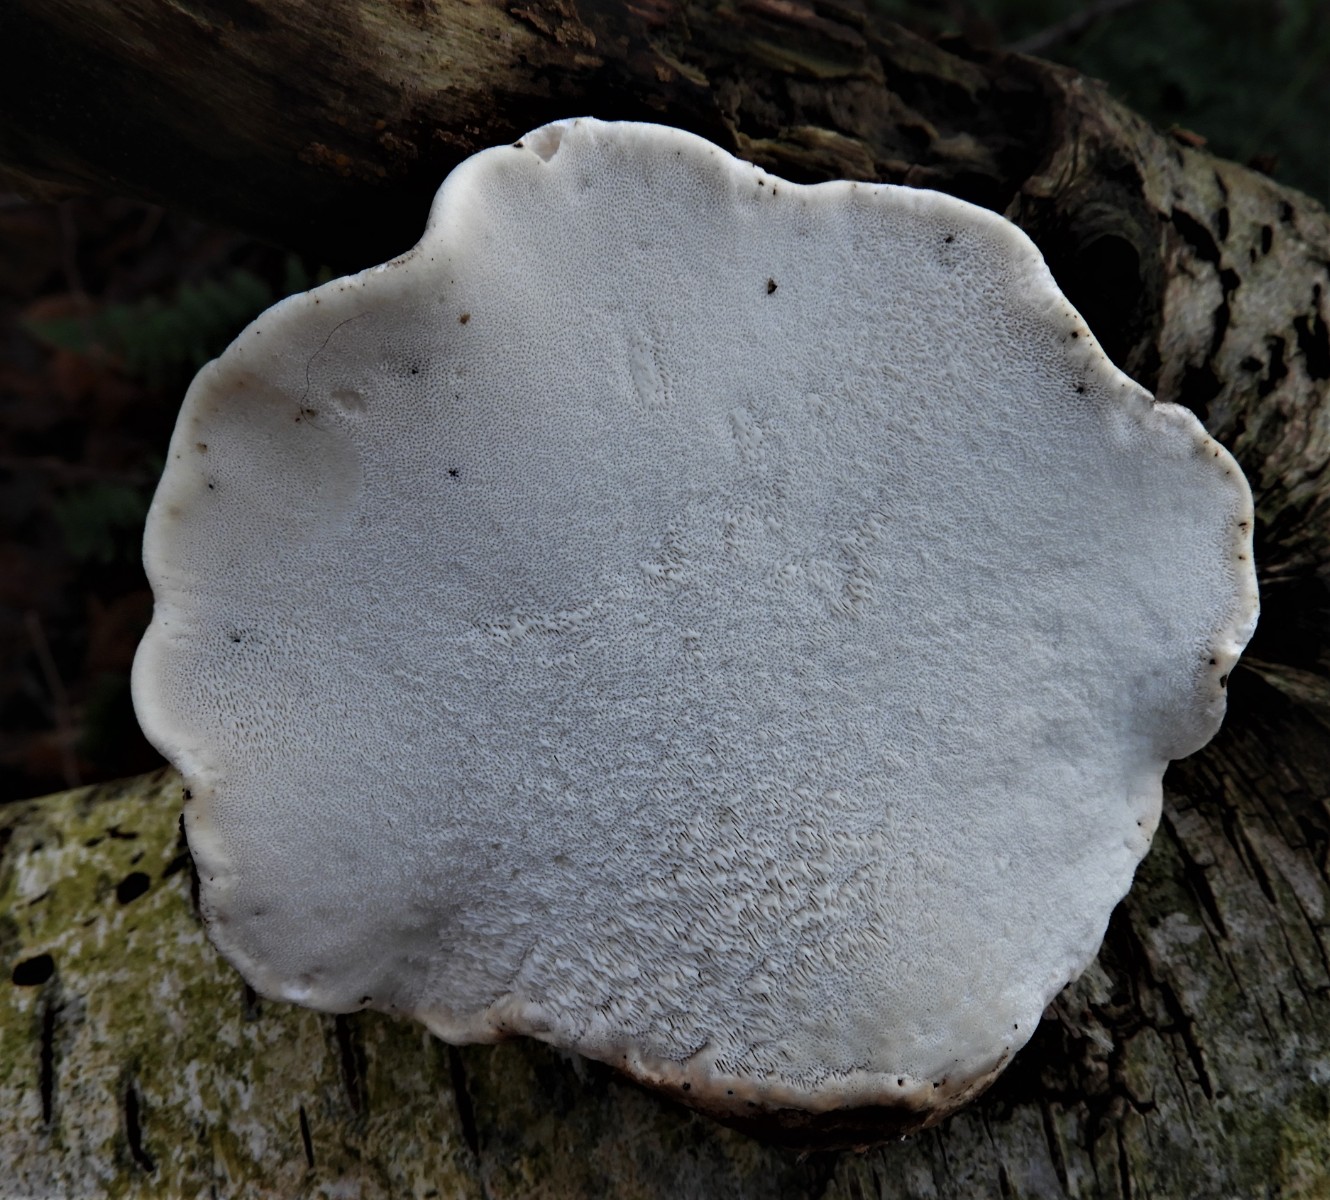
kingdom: Fungi
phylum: Basidiomycota
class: Agaricomycetes
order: Polyporales
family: Fomitopsidaceae
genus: Fomitopsis
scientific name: Fomitopsis betulina
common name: birkeporesvamp
